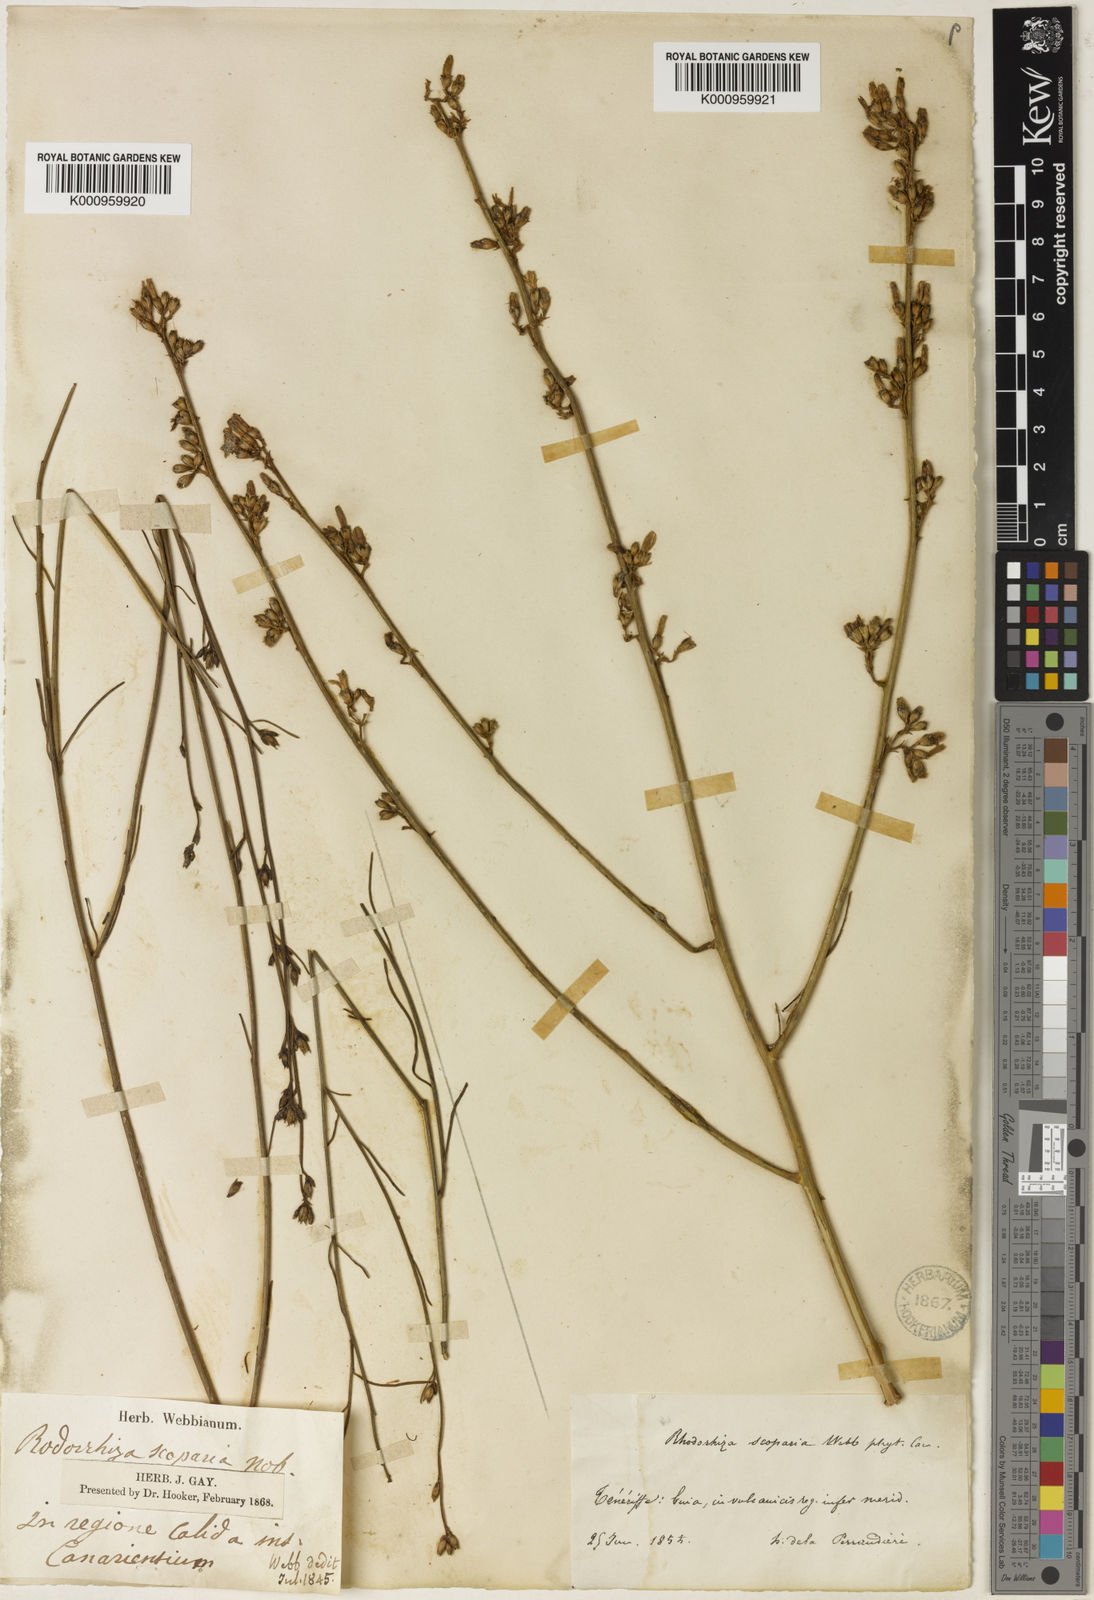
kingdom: Plantae
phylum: Tracheophyta
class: Magnoliopsida
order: Solanales
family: Convolvulaceae
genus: Convolvulus
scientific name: Convolvulus scoparius
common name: Lignum rhodium
